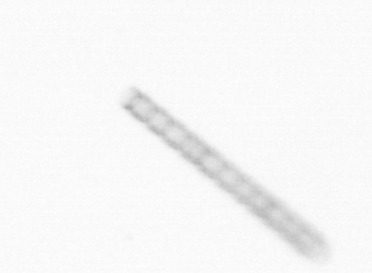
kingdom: Chromista
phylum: Ochrophyta
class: Bacillariophyceae
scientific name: Bacillariophyceae
